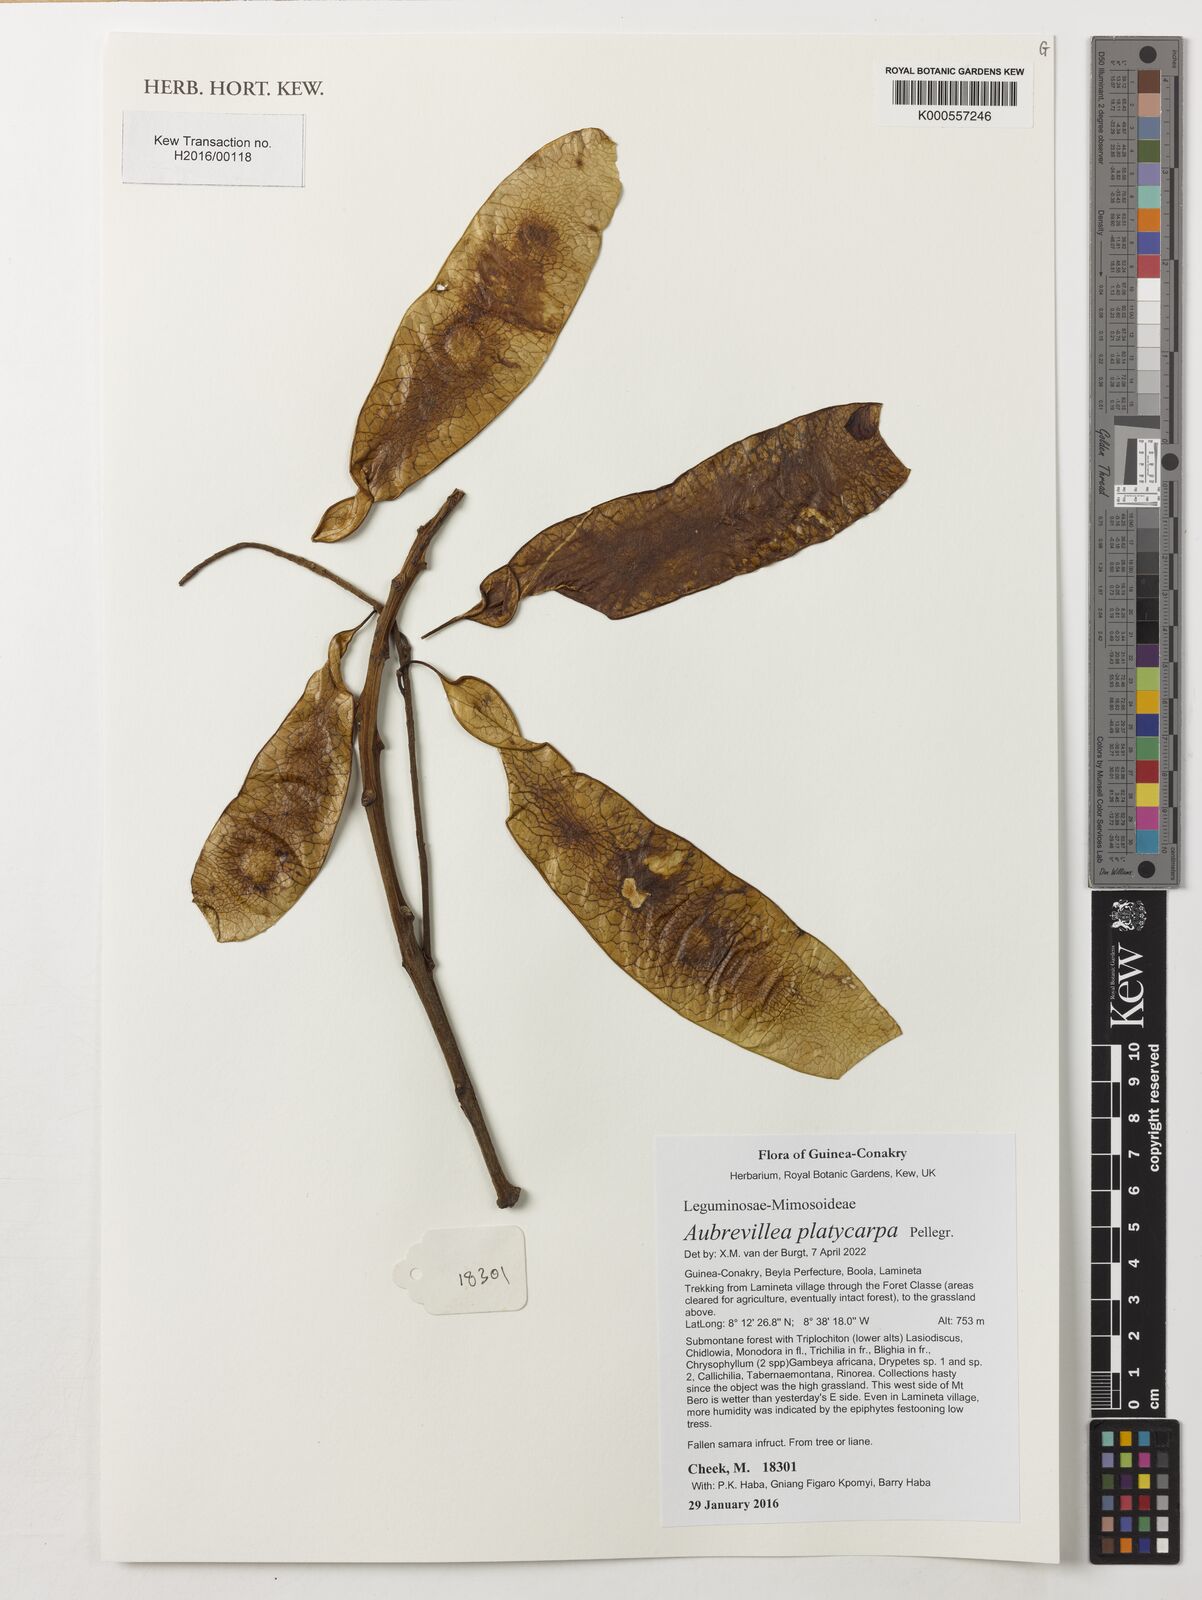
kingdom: Plantae
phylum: Tracheophyta
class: Magnoliopsida
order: Fabales
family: Fabaceae
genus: Aubrevillea
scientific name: Aubrevillea platicarpa
